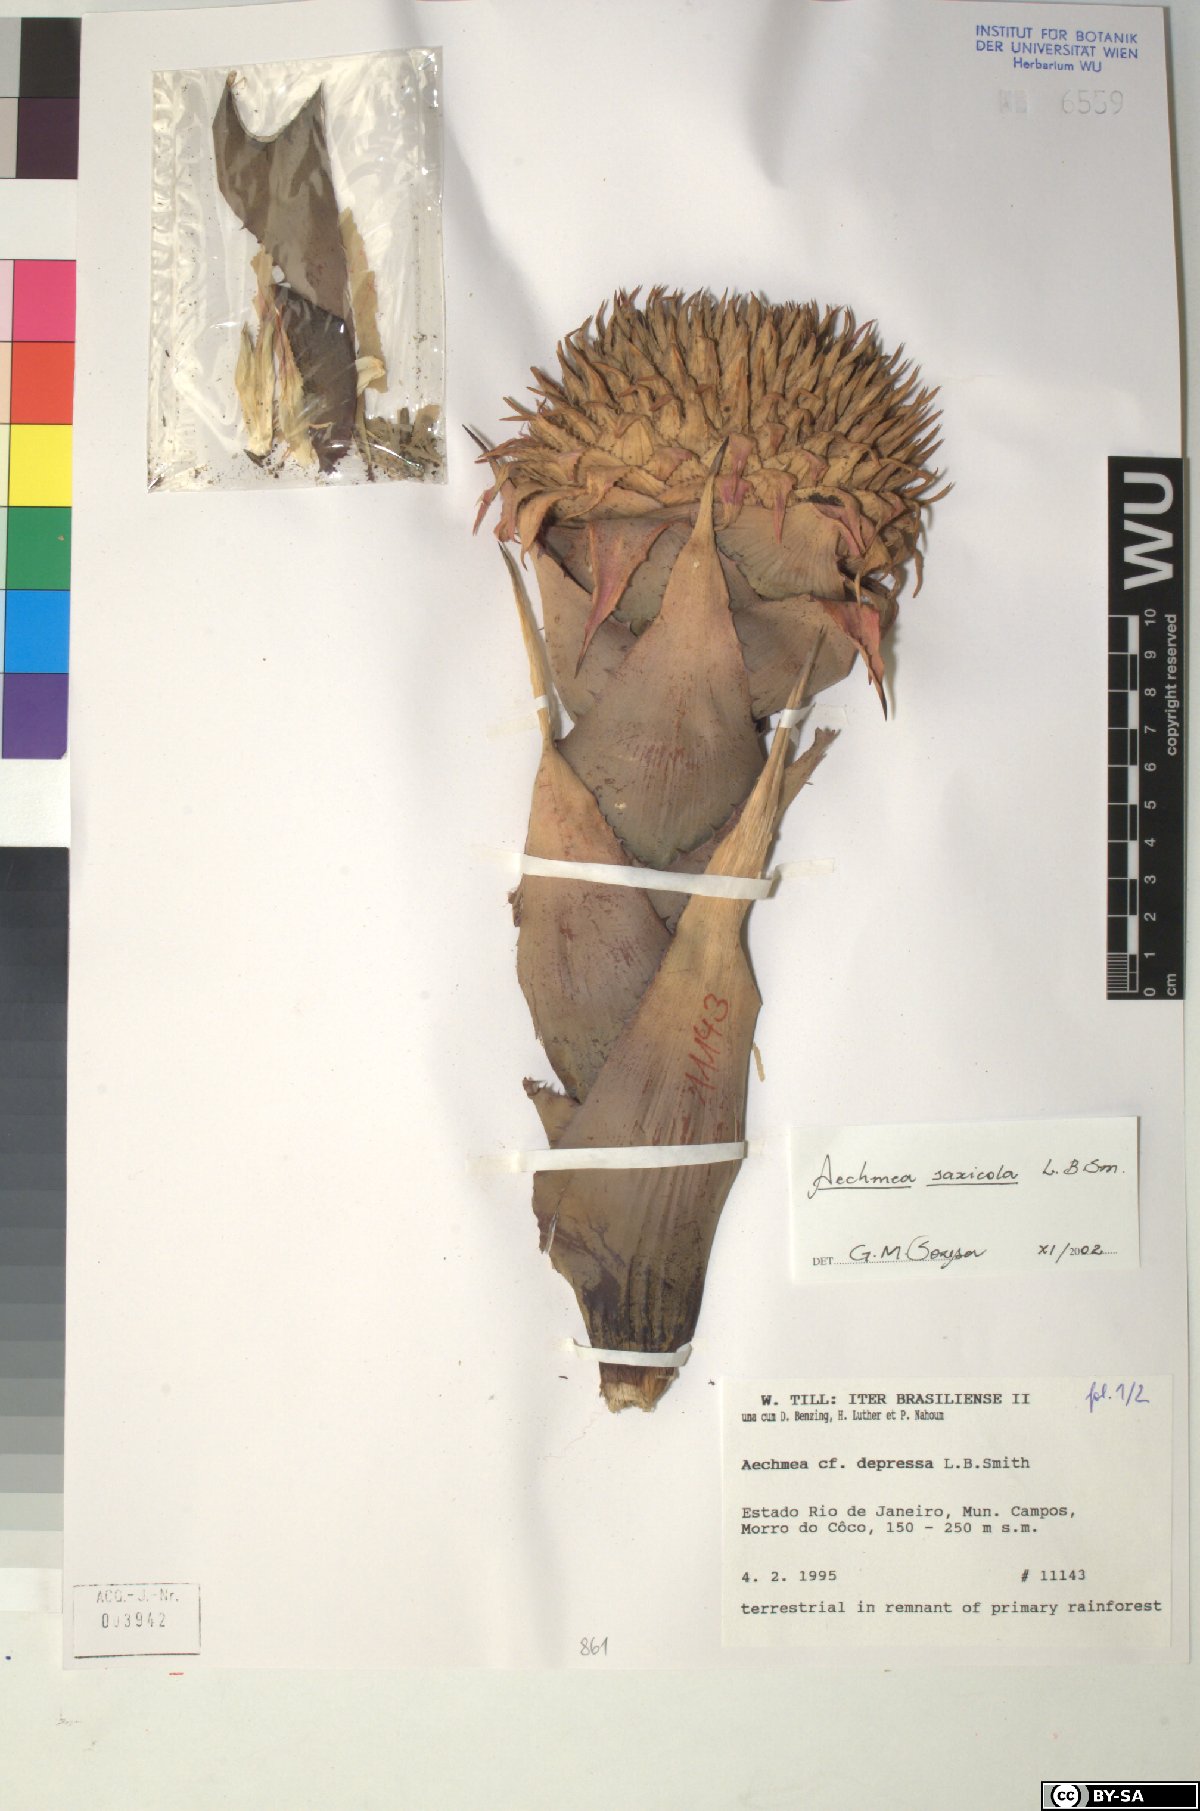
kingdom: Plantae
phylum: Tracheophyta
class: Liliopsida
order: Poales
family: Bromeliaceae
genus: Karawata
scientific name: Karawata depressa
